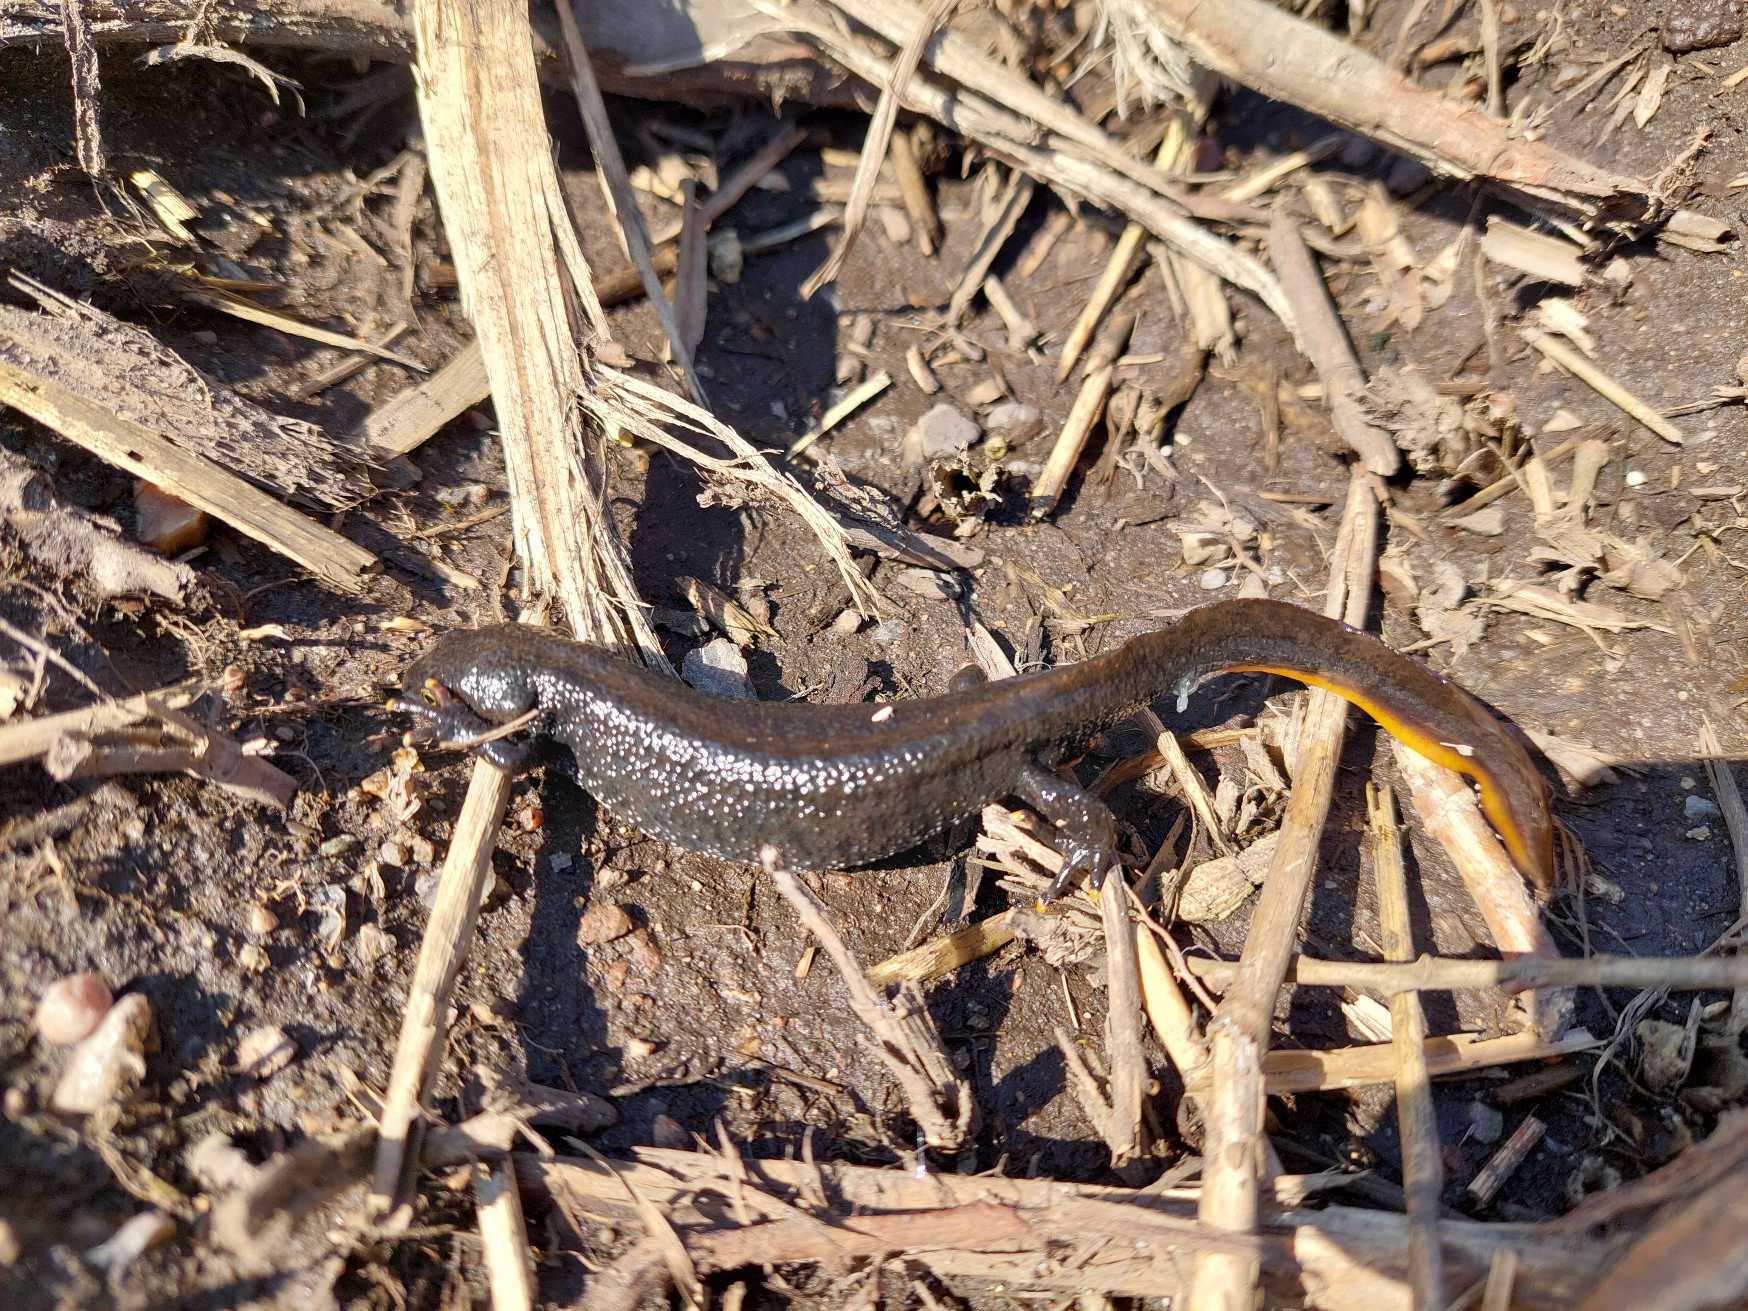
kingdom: Animalia
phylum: Chordata
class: Amphibia
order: Caudata
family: Salamandridae
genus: Triturus
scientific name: Triturus cristatus
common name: Stor vandsalamander
